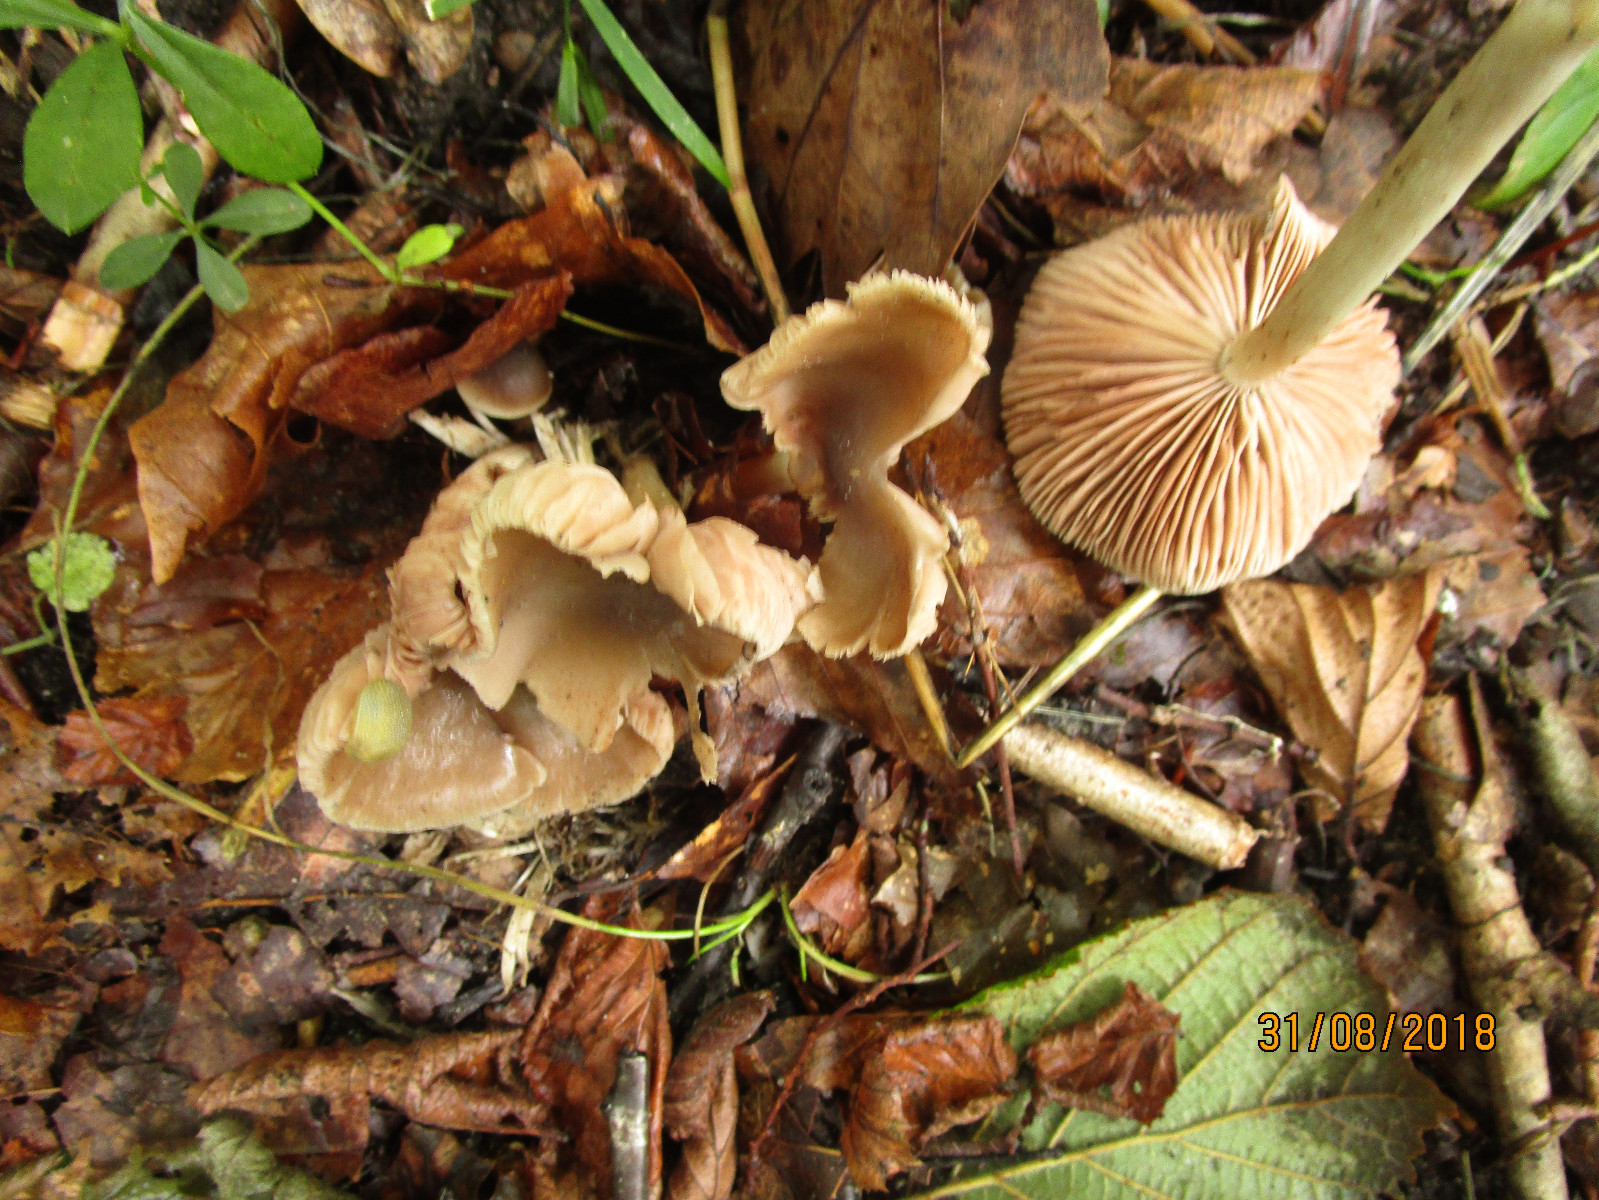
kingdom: Fungi
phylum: Basidiomycota
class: Agaricomycetes
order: Agaricales
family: Entolomataceae
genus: Entoloma
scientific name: Entoloma sordidulum
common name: smudsig rødblad
